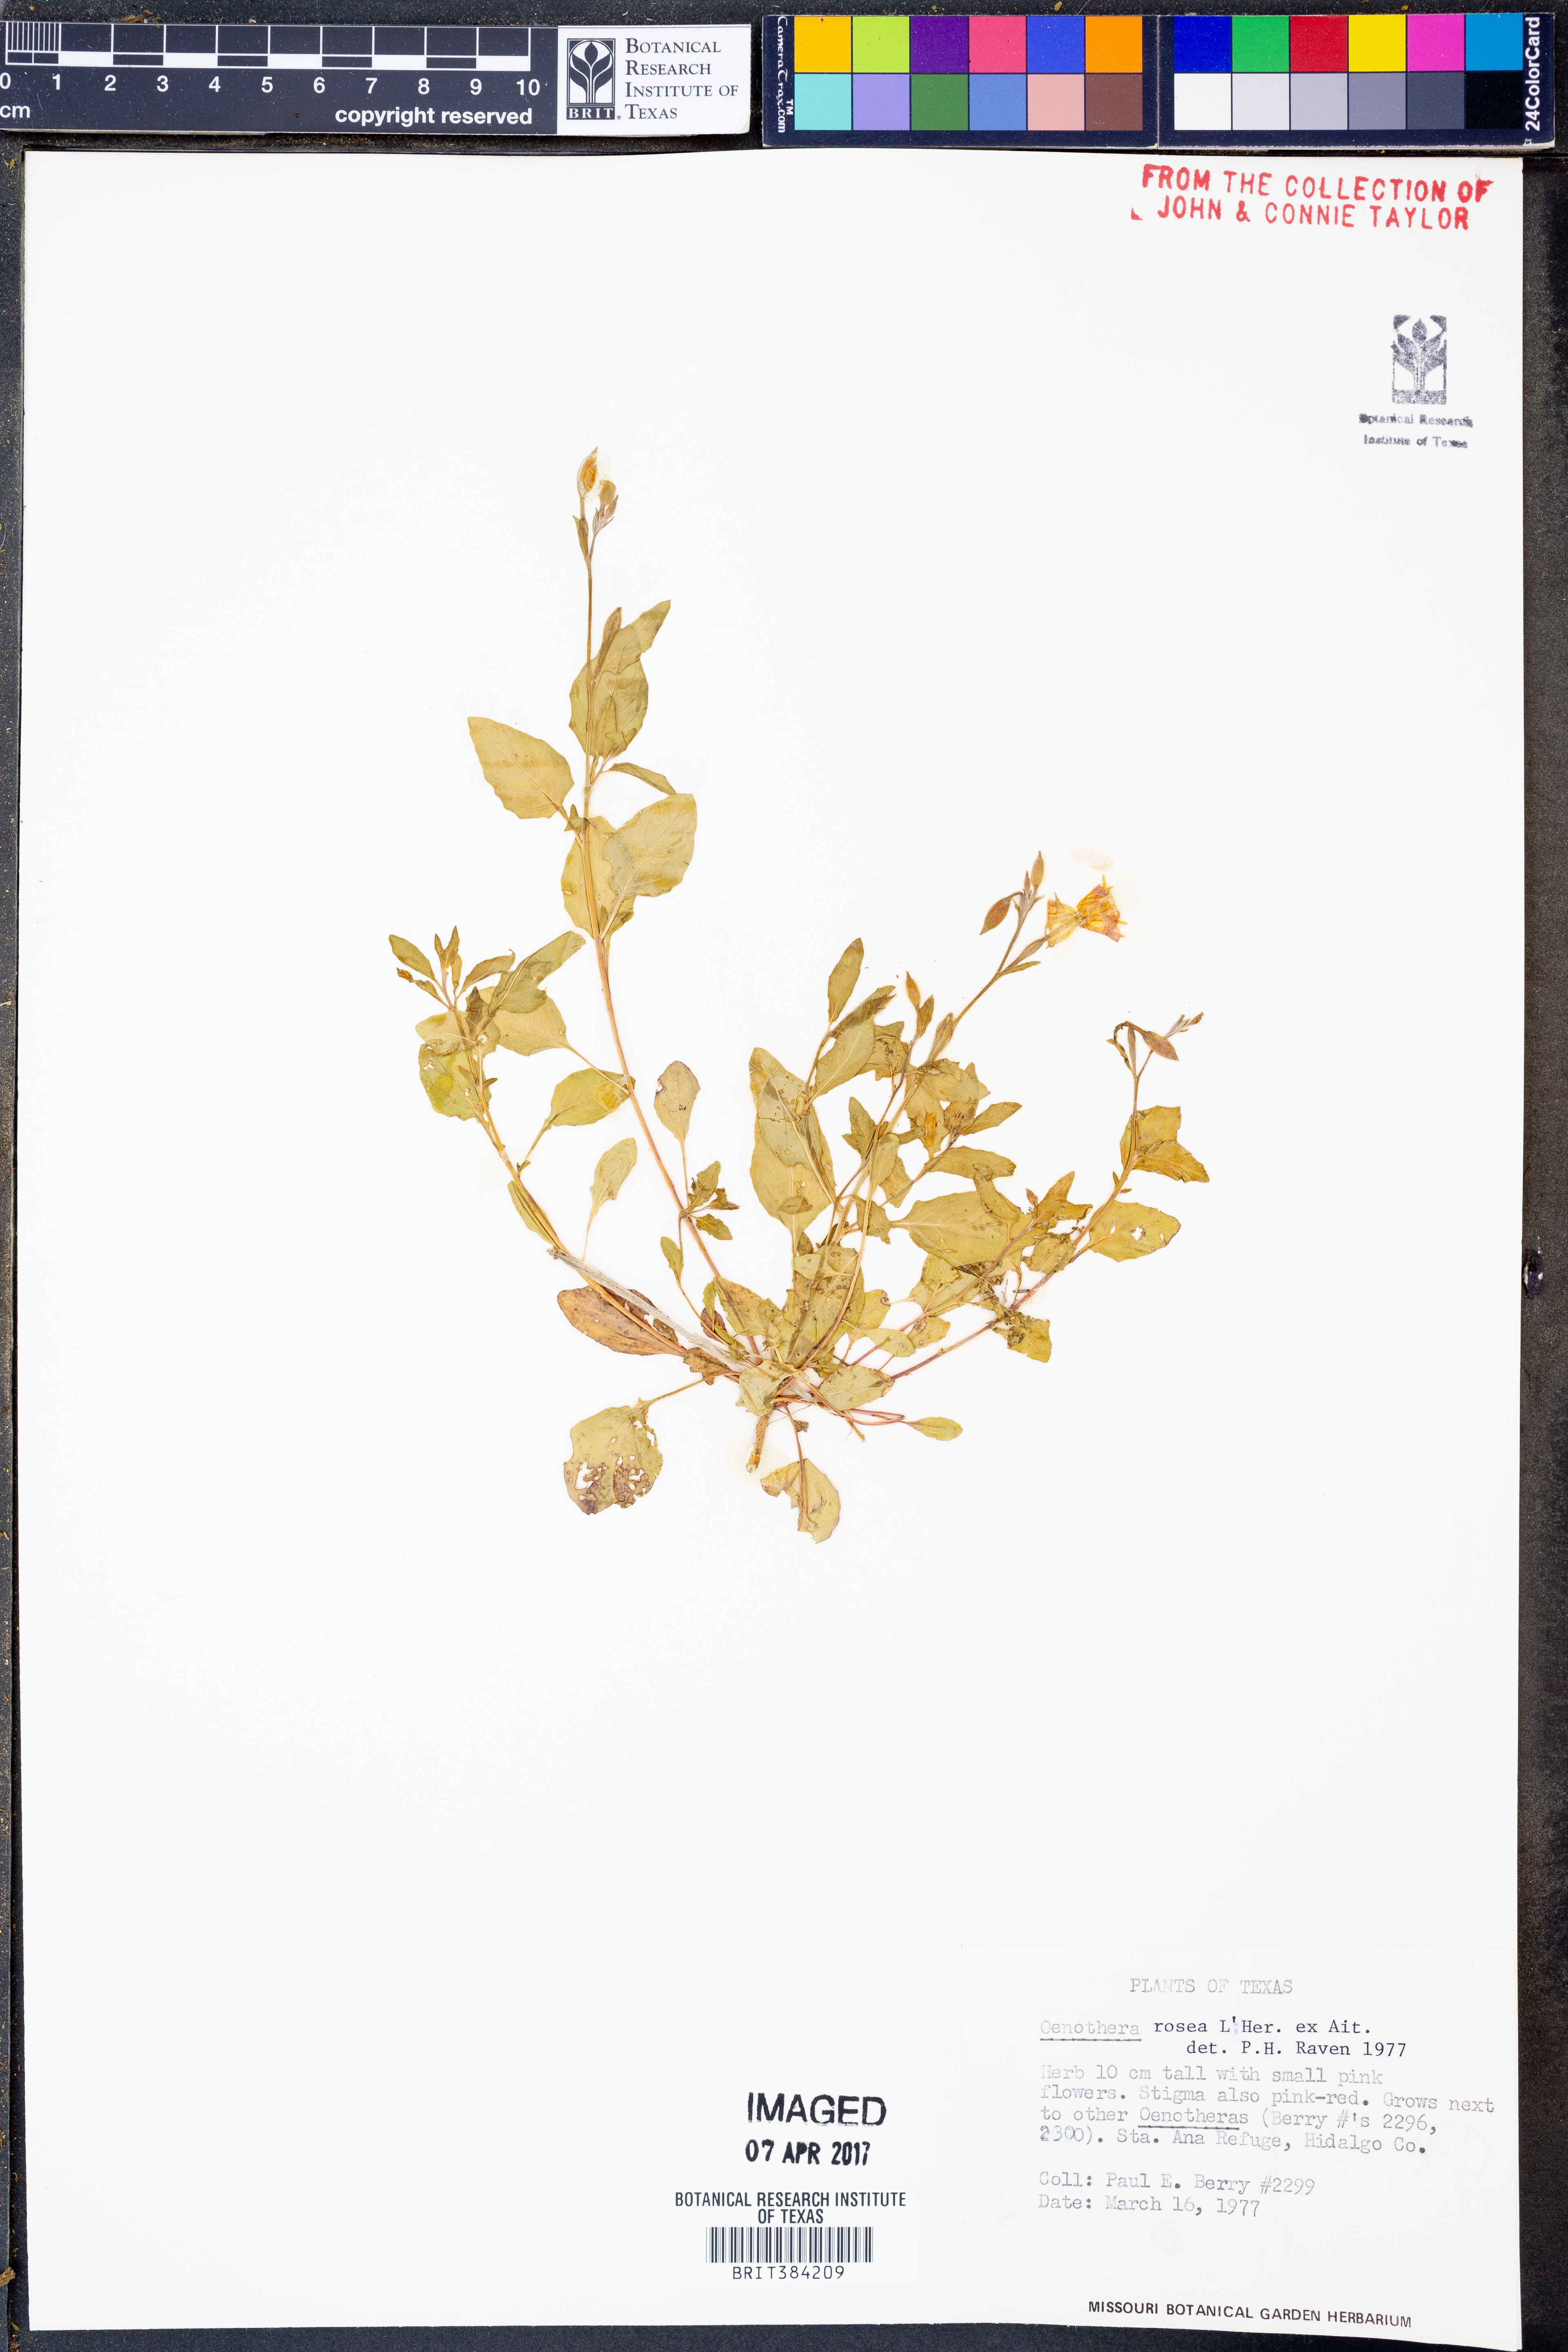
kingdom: Plantae
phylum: Tracheophyta
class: Magnoliopsida
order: Myrtales
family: Onagraceae
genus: Oenothera
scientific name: Oenothera rosea
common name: Rosy evening-primrose
